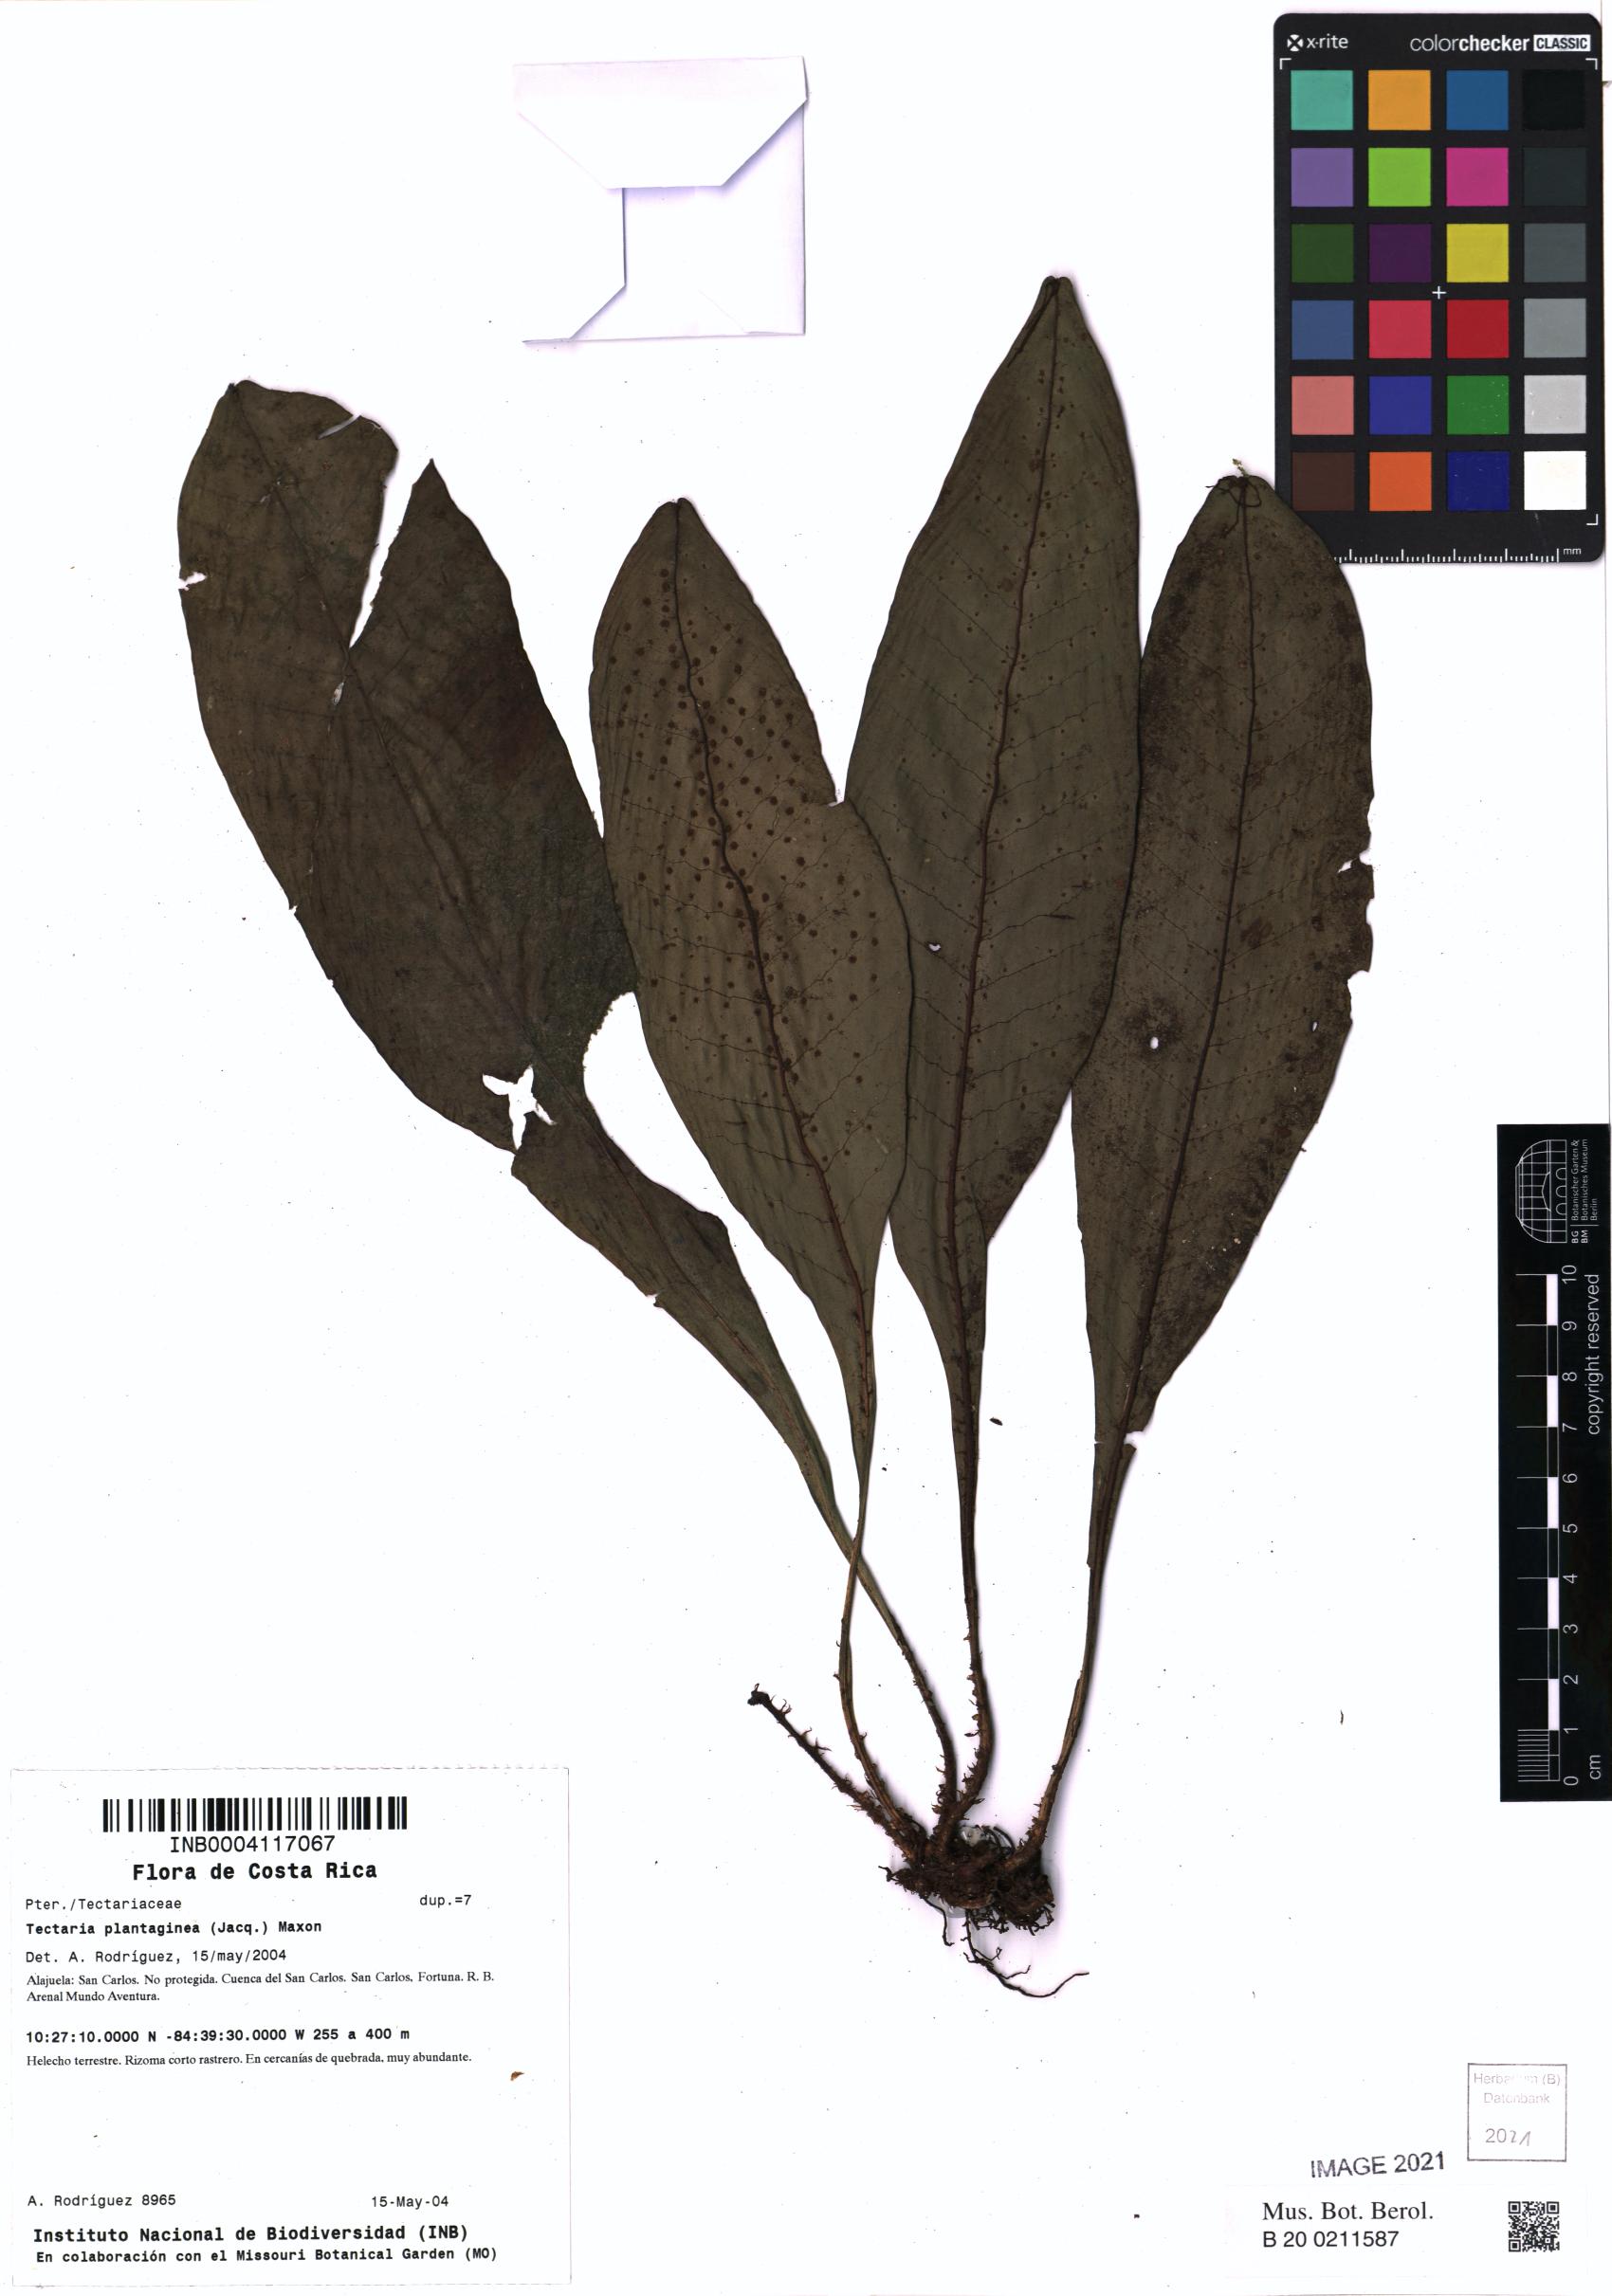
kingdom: Plantae
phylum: Tracheophyta
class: Polypodiopsida
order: Polypodiales
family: Lomariopsidaceae
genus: Dracoglossum
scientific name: Dracoglossum plantagineum
